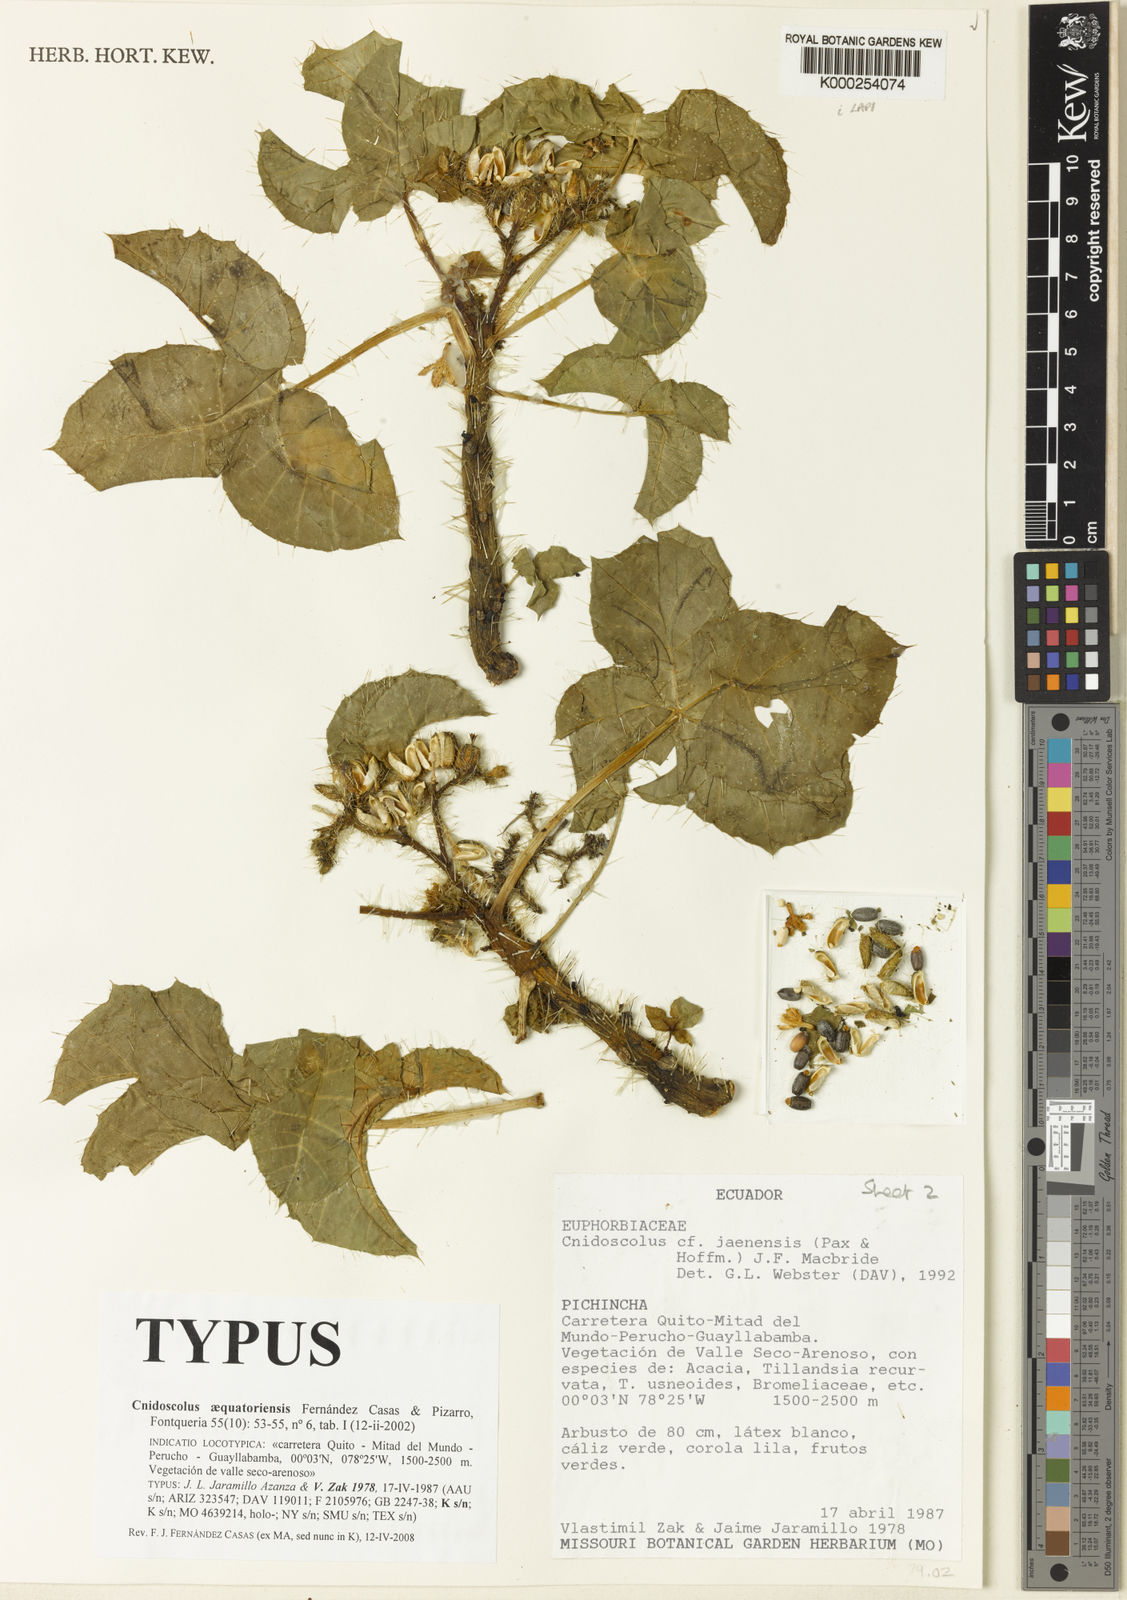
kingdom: Plantae
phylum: Tracheophyta
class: Magnoliopsida
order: Malpighiales
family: Euphorbiaceae
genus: Cnidoscolus
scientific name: Cnidoscolus aequatoriensis
